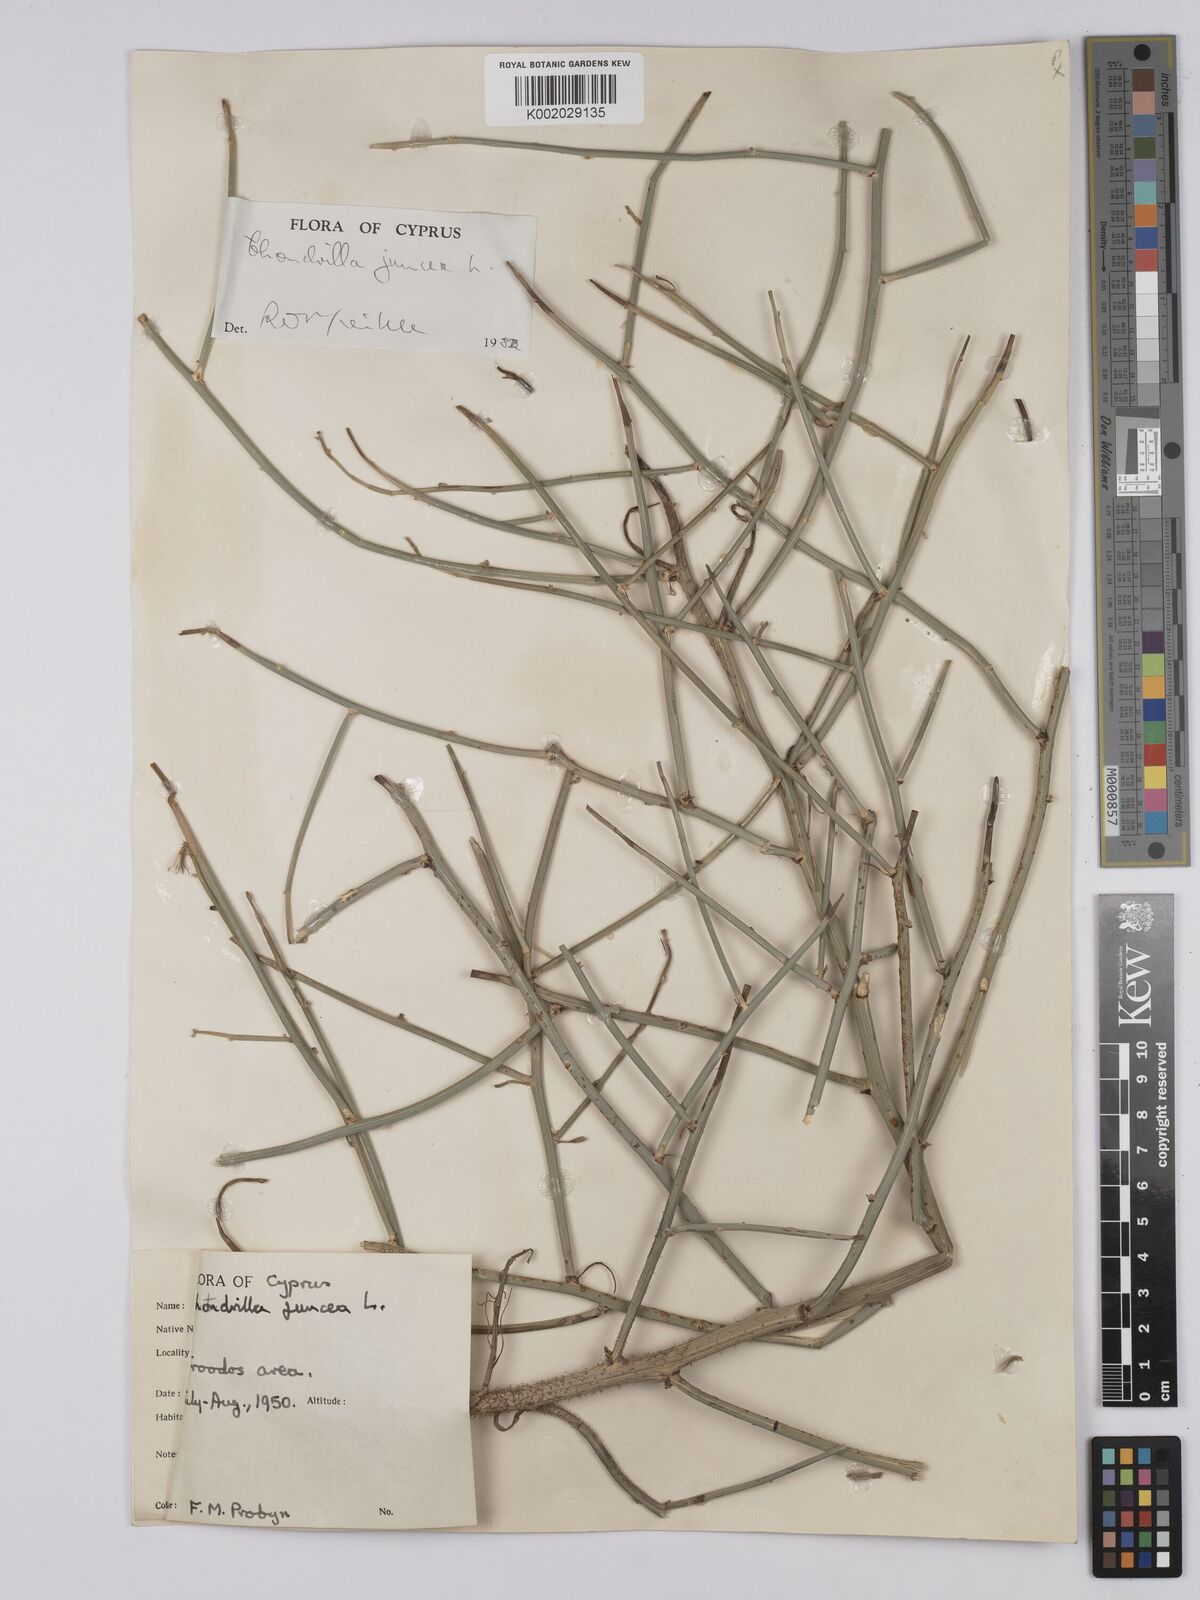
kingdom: Plantae
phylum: Tracheophyta
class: Magnoliopsida
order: Asterales
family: Asteraceae
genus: Chondrilla
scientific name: Chondrilla juncea
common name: Skeleton weed
